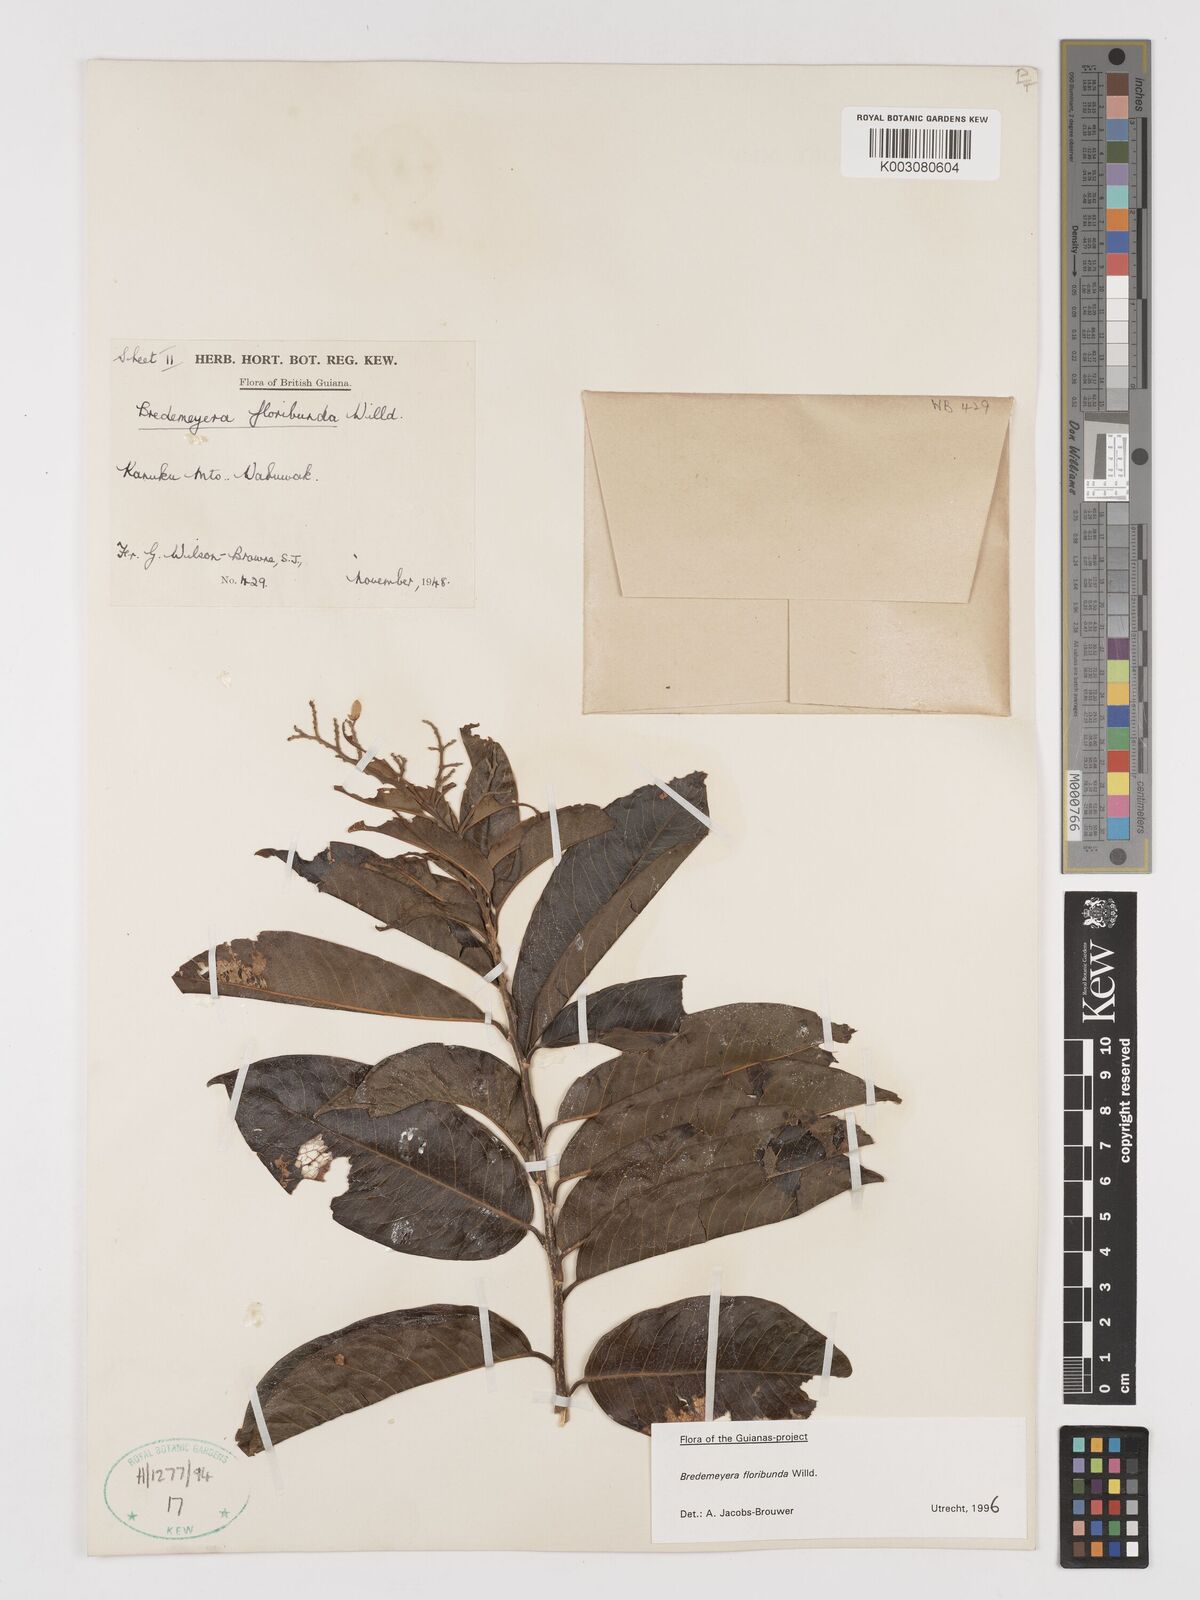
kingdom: Plantae
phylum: Tracheophyta
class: Magnoliopsida
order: Fabales
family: Polygalaceae
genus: Bredemeyera
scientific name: Bredemeyera floribunda
